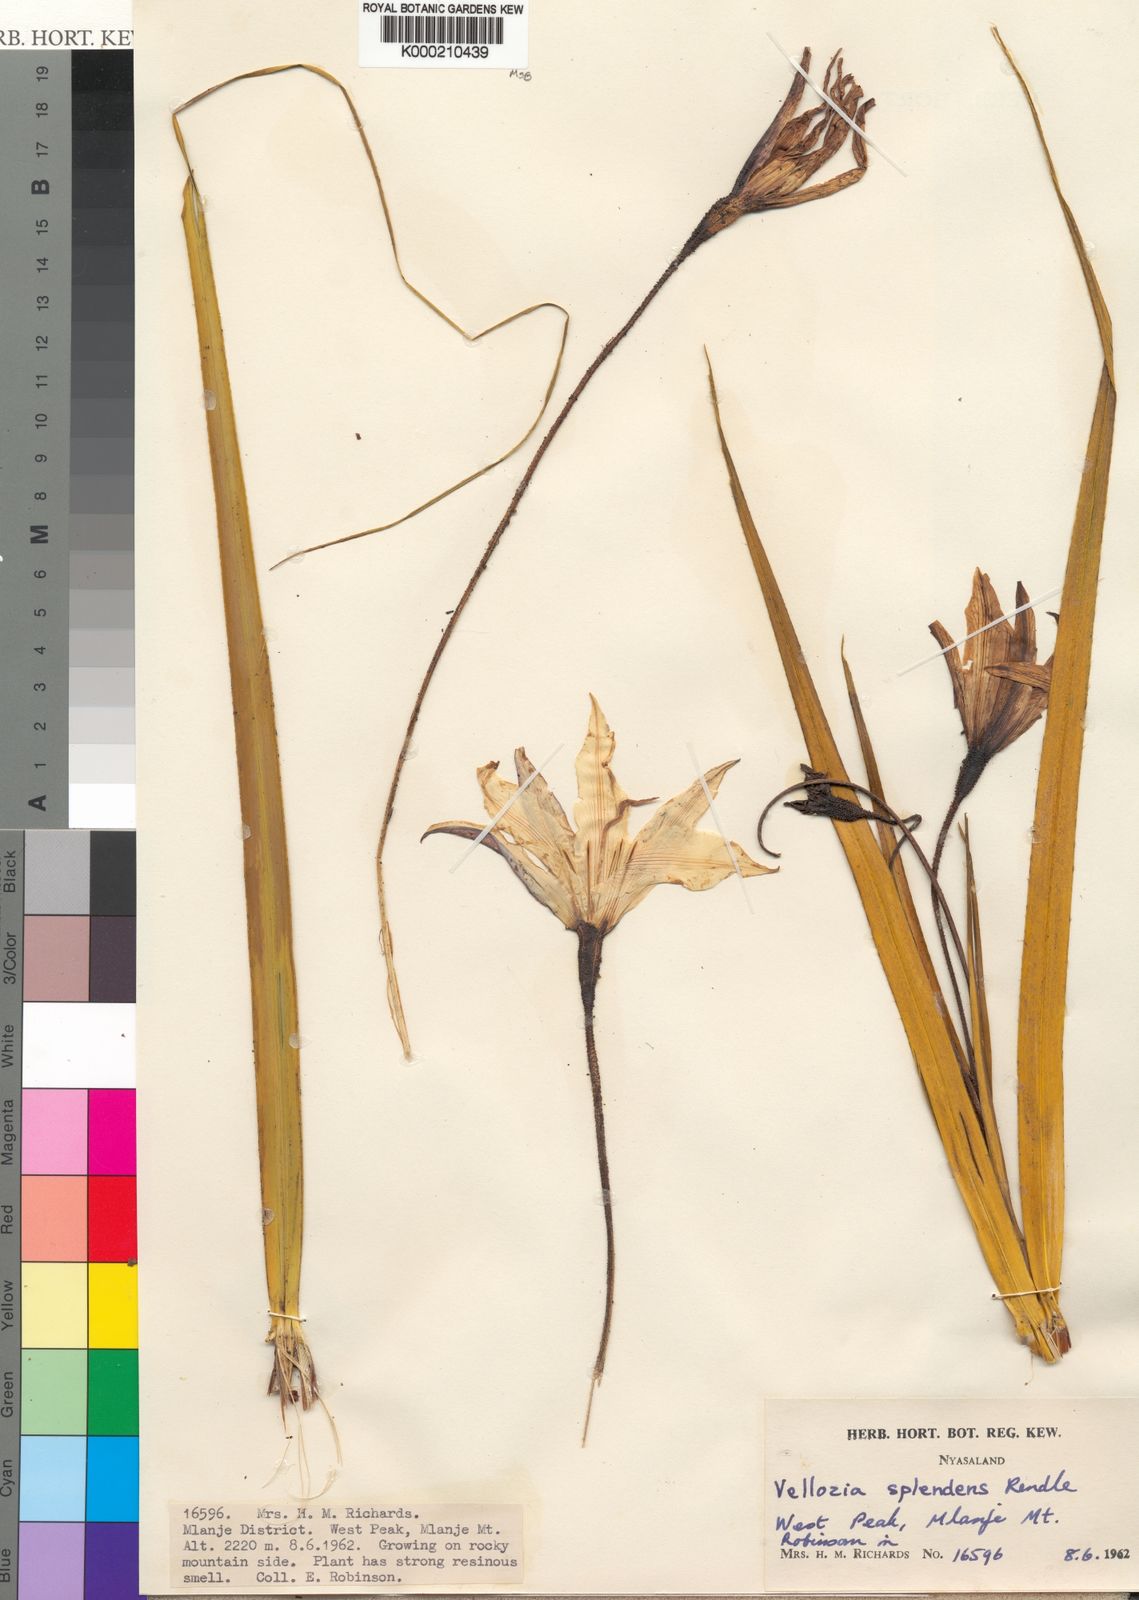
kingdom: Plantae
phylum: Tracheophyta
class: Liliopsida
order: Pandanales
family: Velloziaceae
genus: Xerophyta
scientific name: Xerophyta splendens
